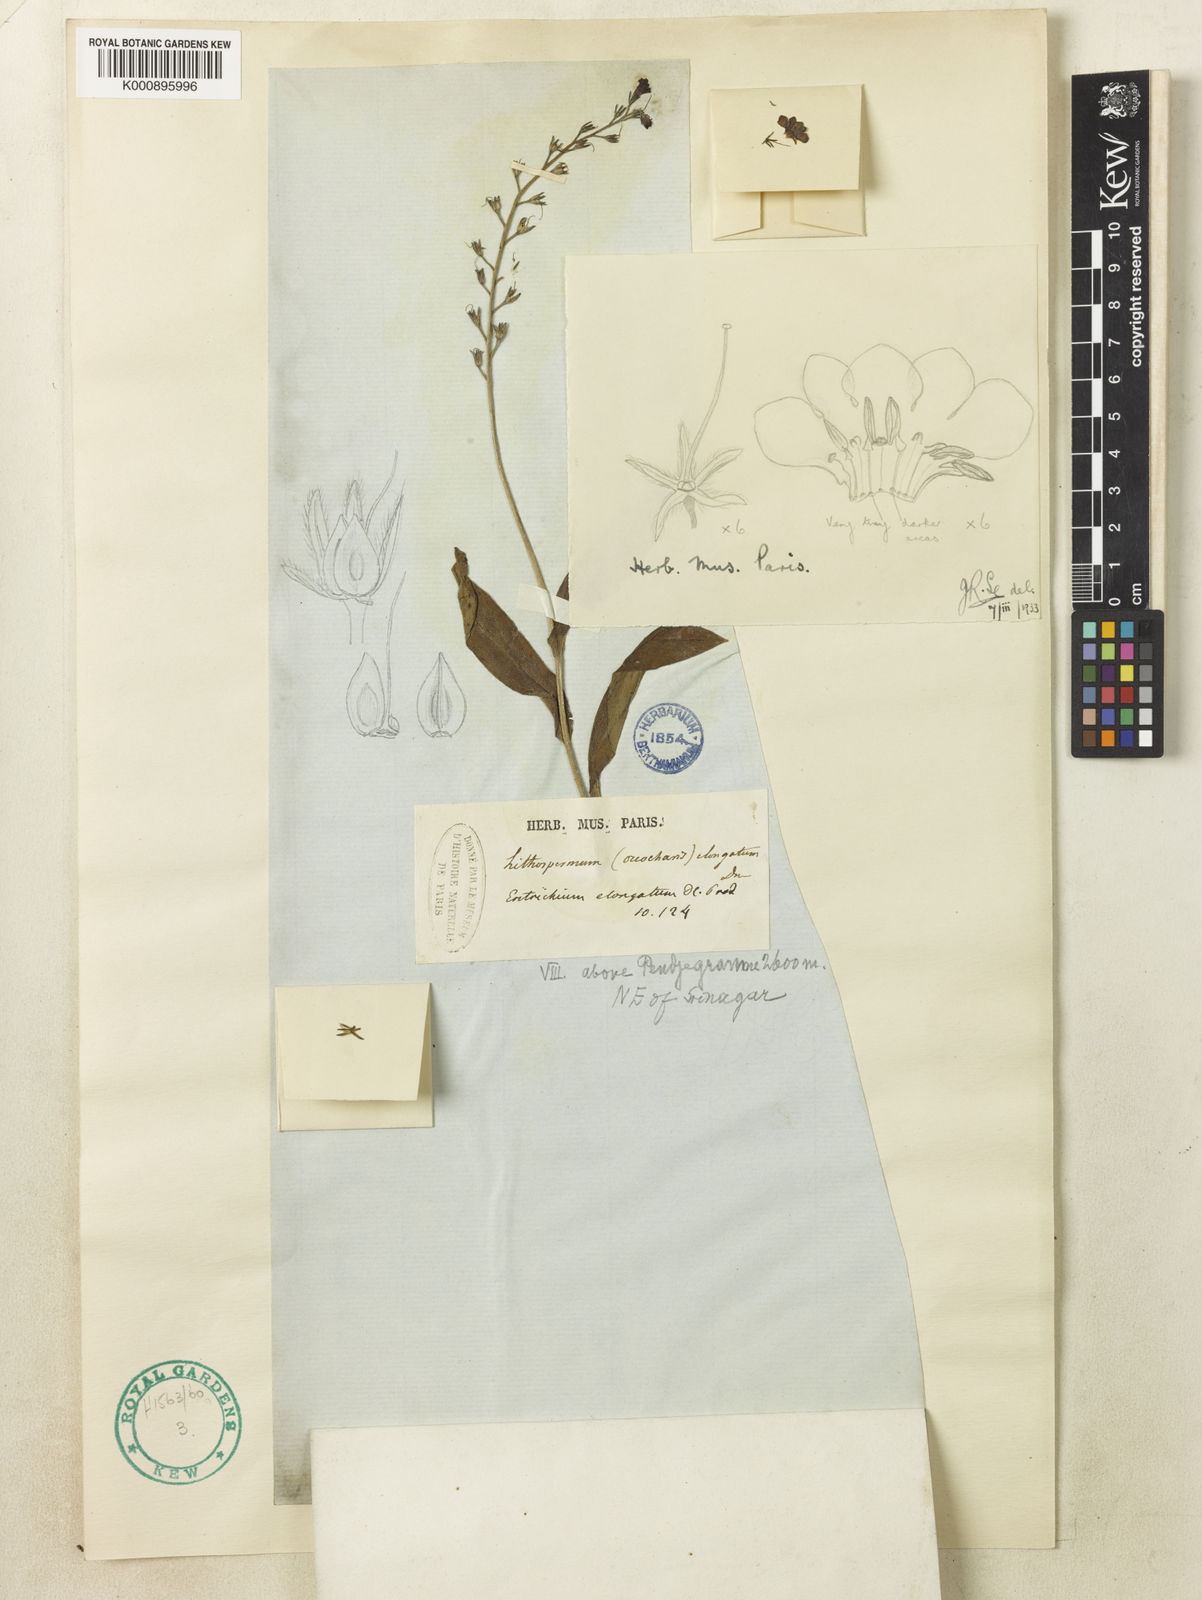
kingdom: Plantae
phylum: Tracheophyta
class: Magnoliopsida
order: Boraginales
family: Boraginaceae
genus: Decalepidanthus
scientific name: Decalepidanthus elongatus
